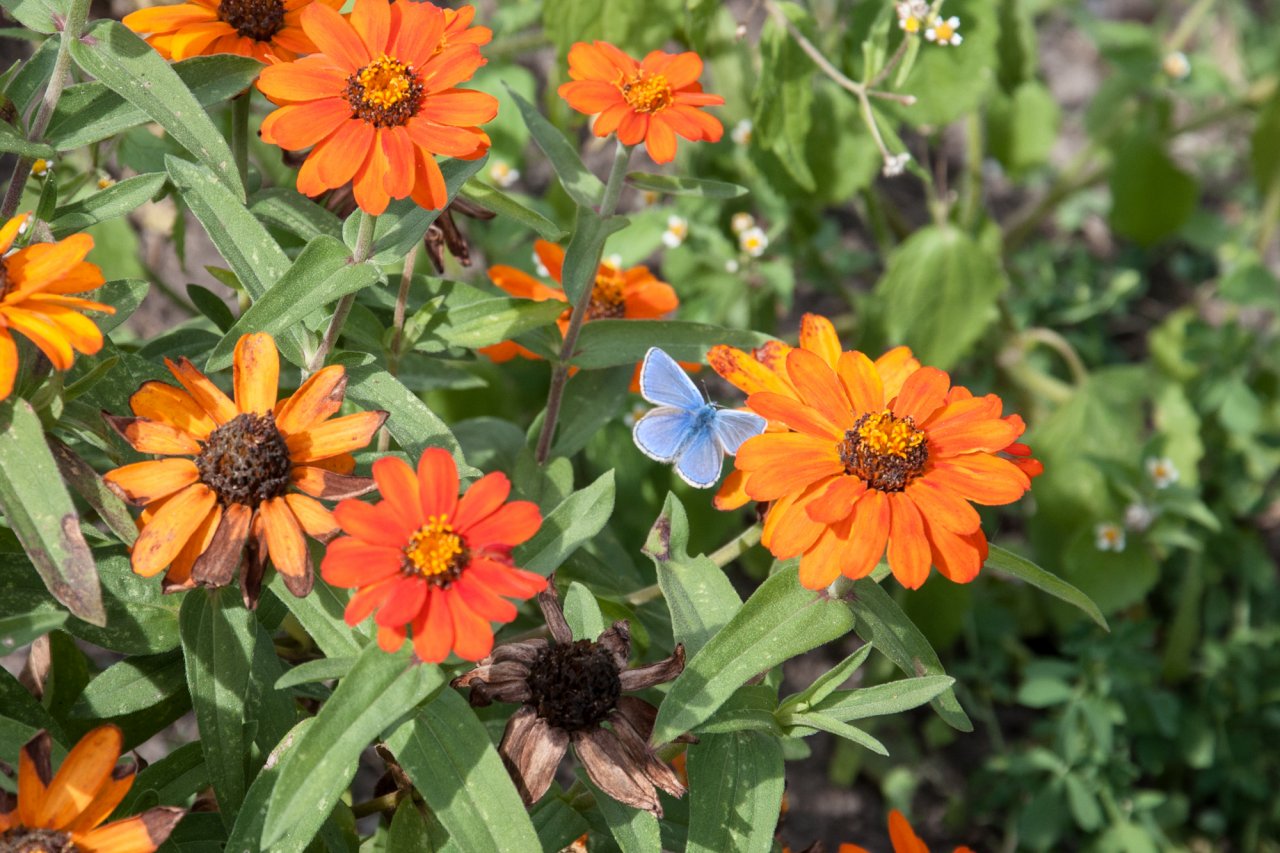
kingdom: Animalia
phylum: Arthropoda
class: Insecta
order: Lepidoptera
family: Lycaenidae
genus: Polyommatus
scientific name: Polyommatus icarus
